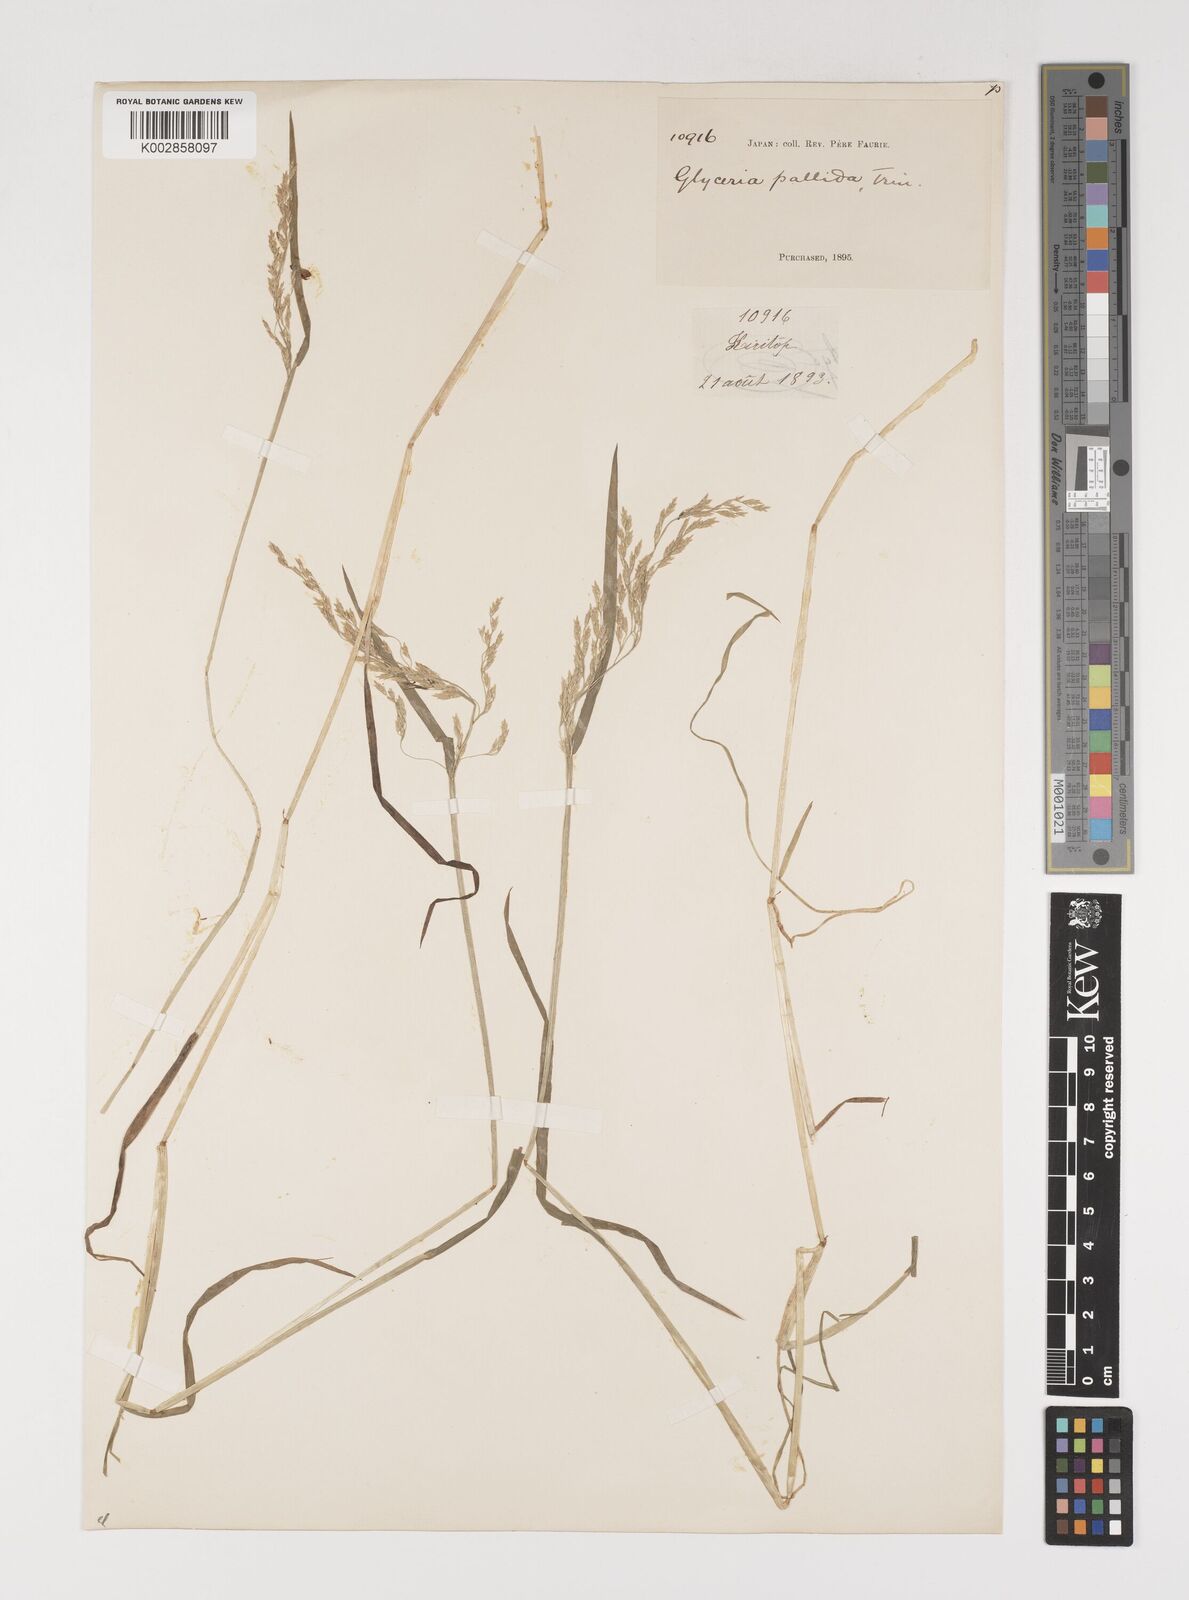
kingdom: Plantae
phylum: Tracheophyta
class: Liliopsida
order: Poales
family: Poaceae
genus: Torreyochloa
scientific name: Torreyochloa natans
